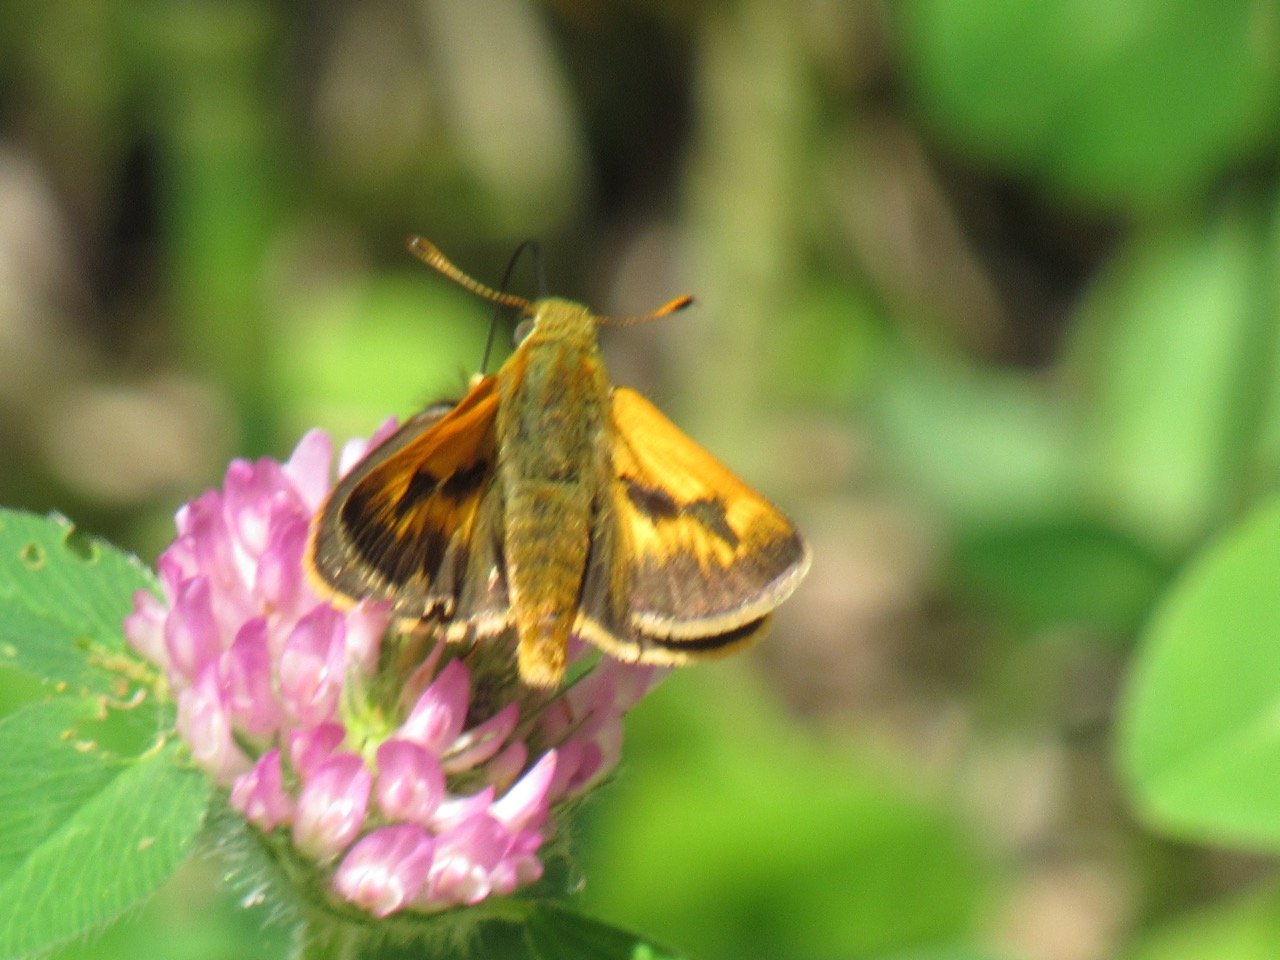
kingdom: Animalia
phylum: Arthropoda
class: Insecta
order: Lepidoptera
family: Hesperiidae
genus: Polites
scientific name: Polites
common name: Long Dash Skipper
